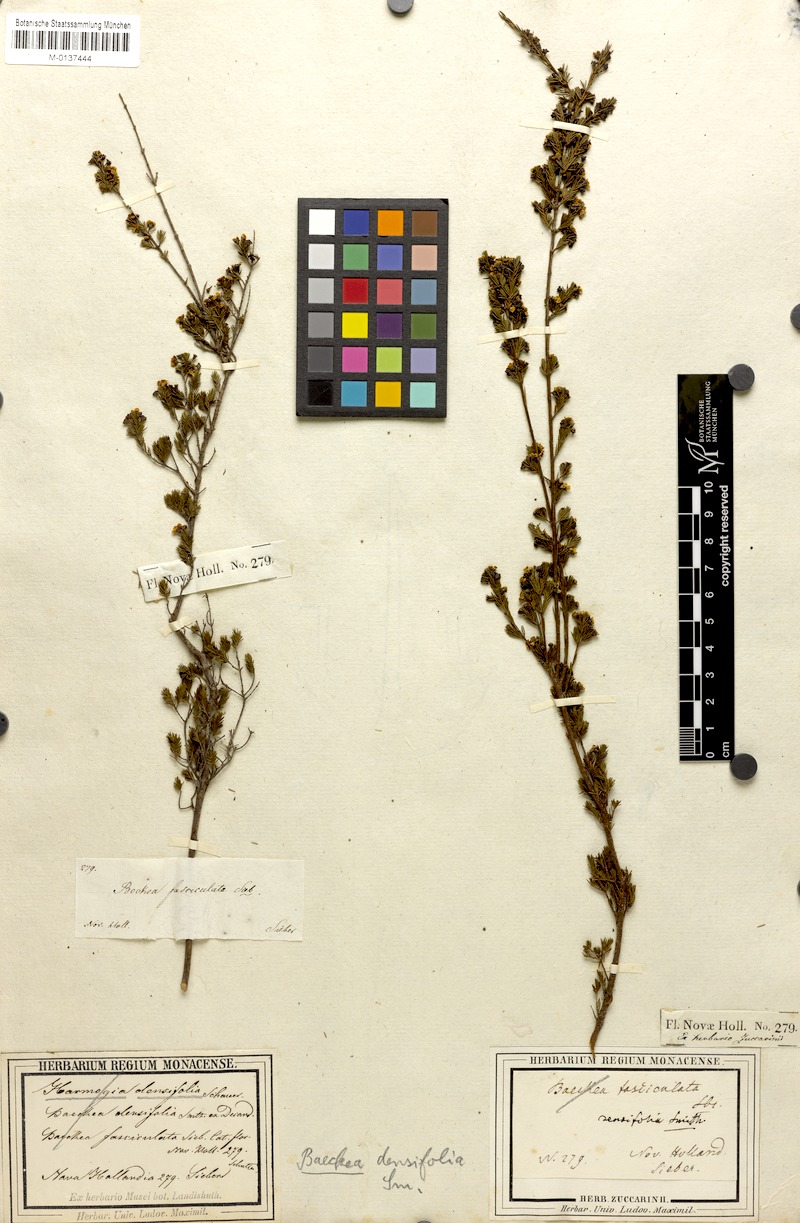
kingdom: Plantae
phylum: Tracheophyta
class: Magnoliopsida
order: Myrtales
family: Myrtaceae
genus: Harmogia
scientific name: Harmogia densifolia
